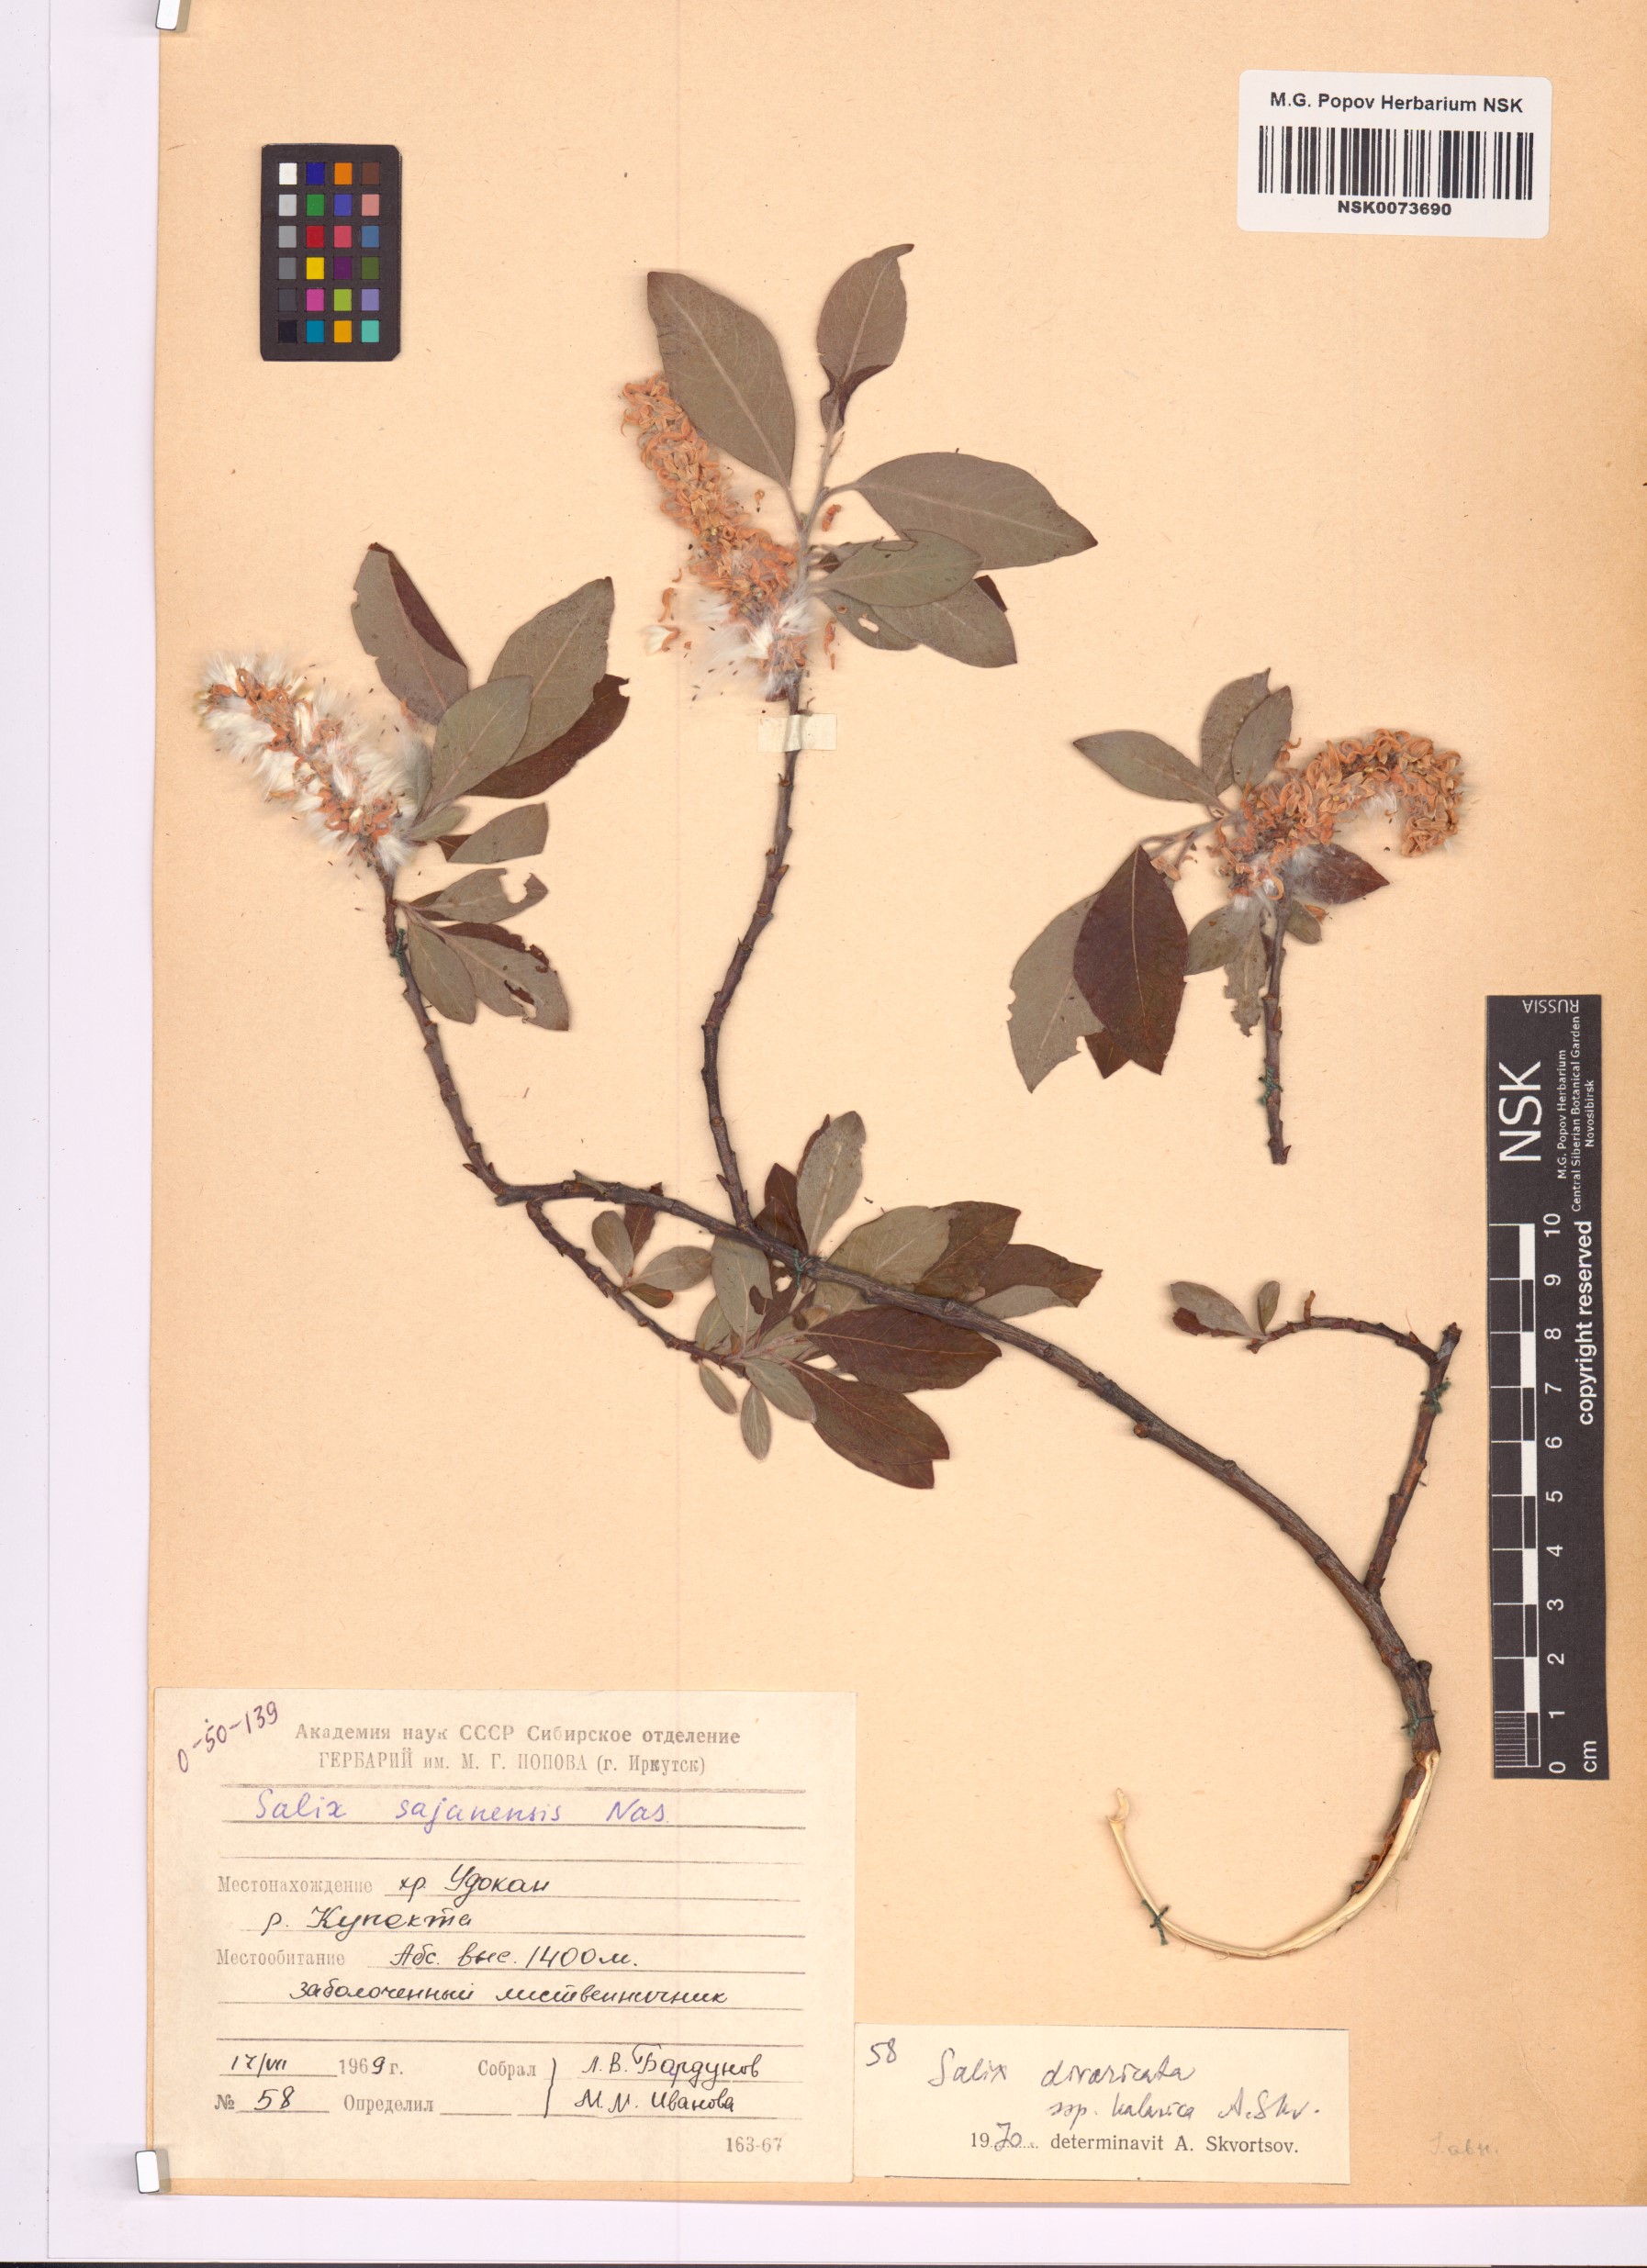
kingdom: Plantae
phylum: Tracheophyta
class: Magnoliopsida
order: Malpighiales
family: Salicaceae
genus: Salix
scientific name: Salix kalarica
